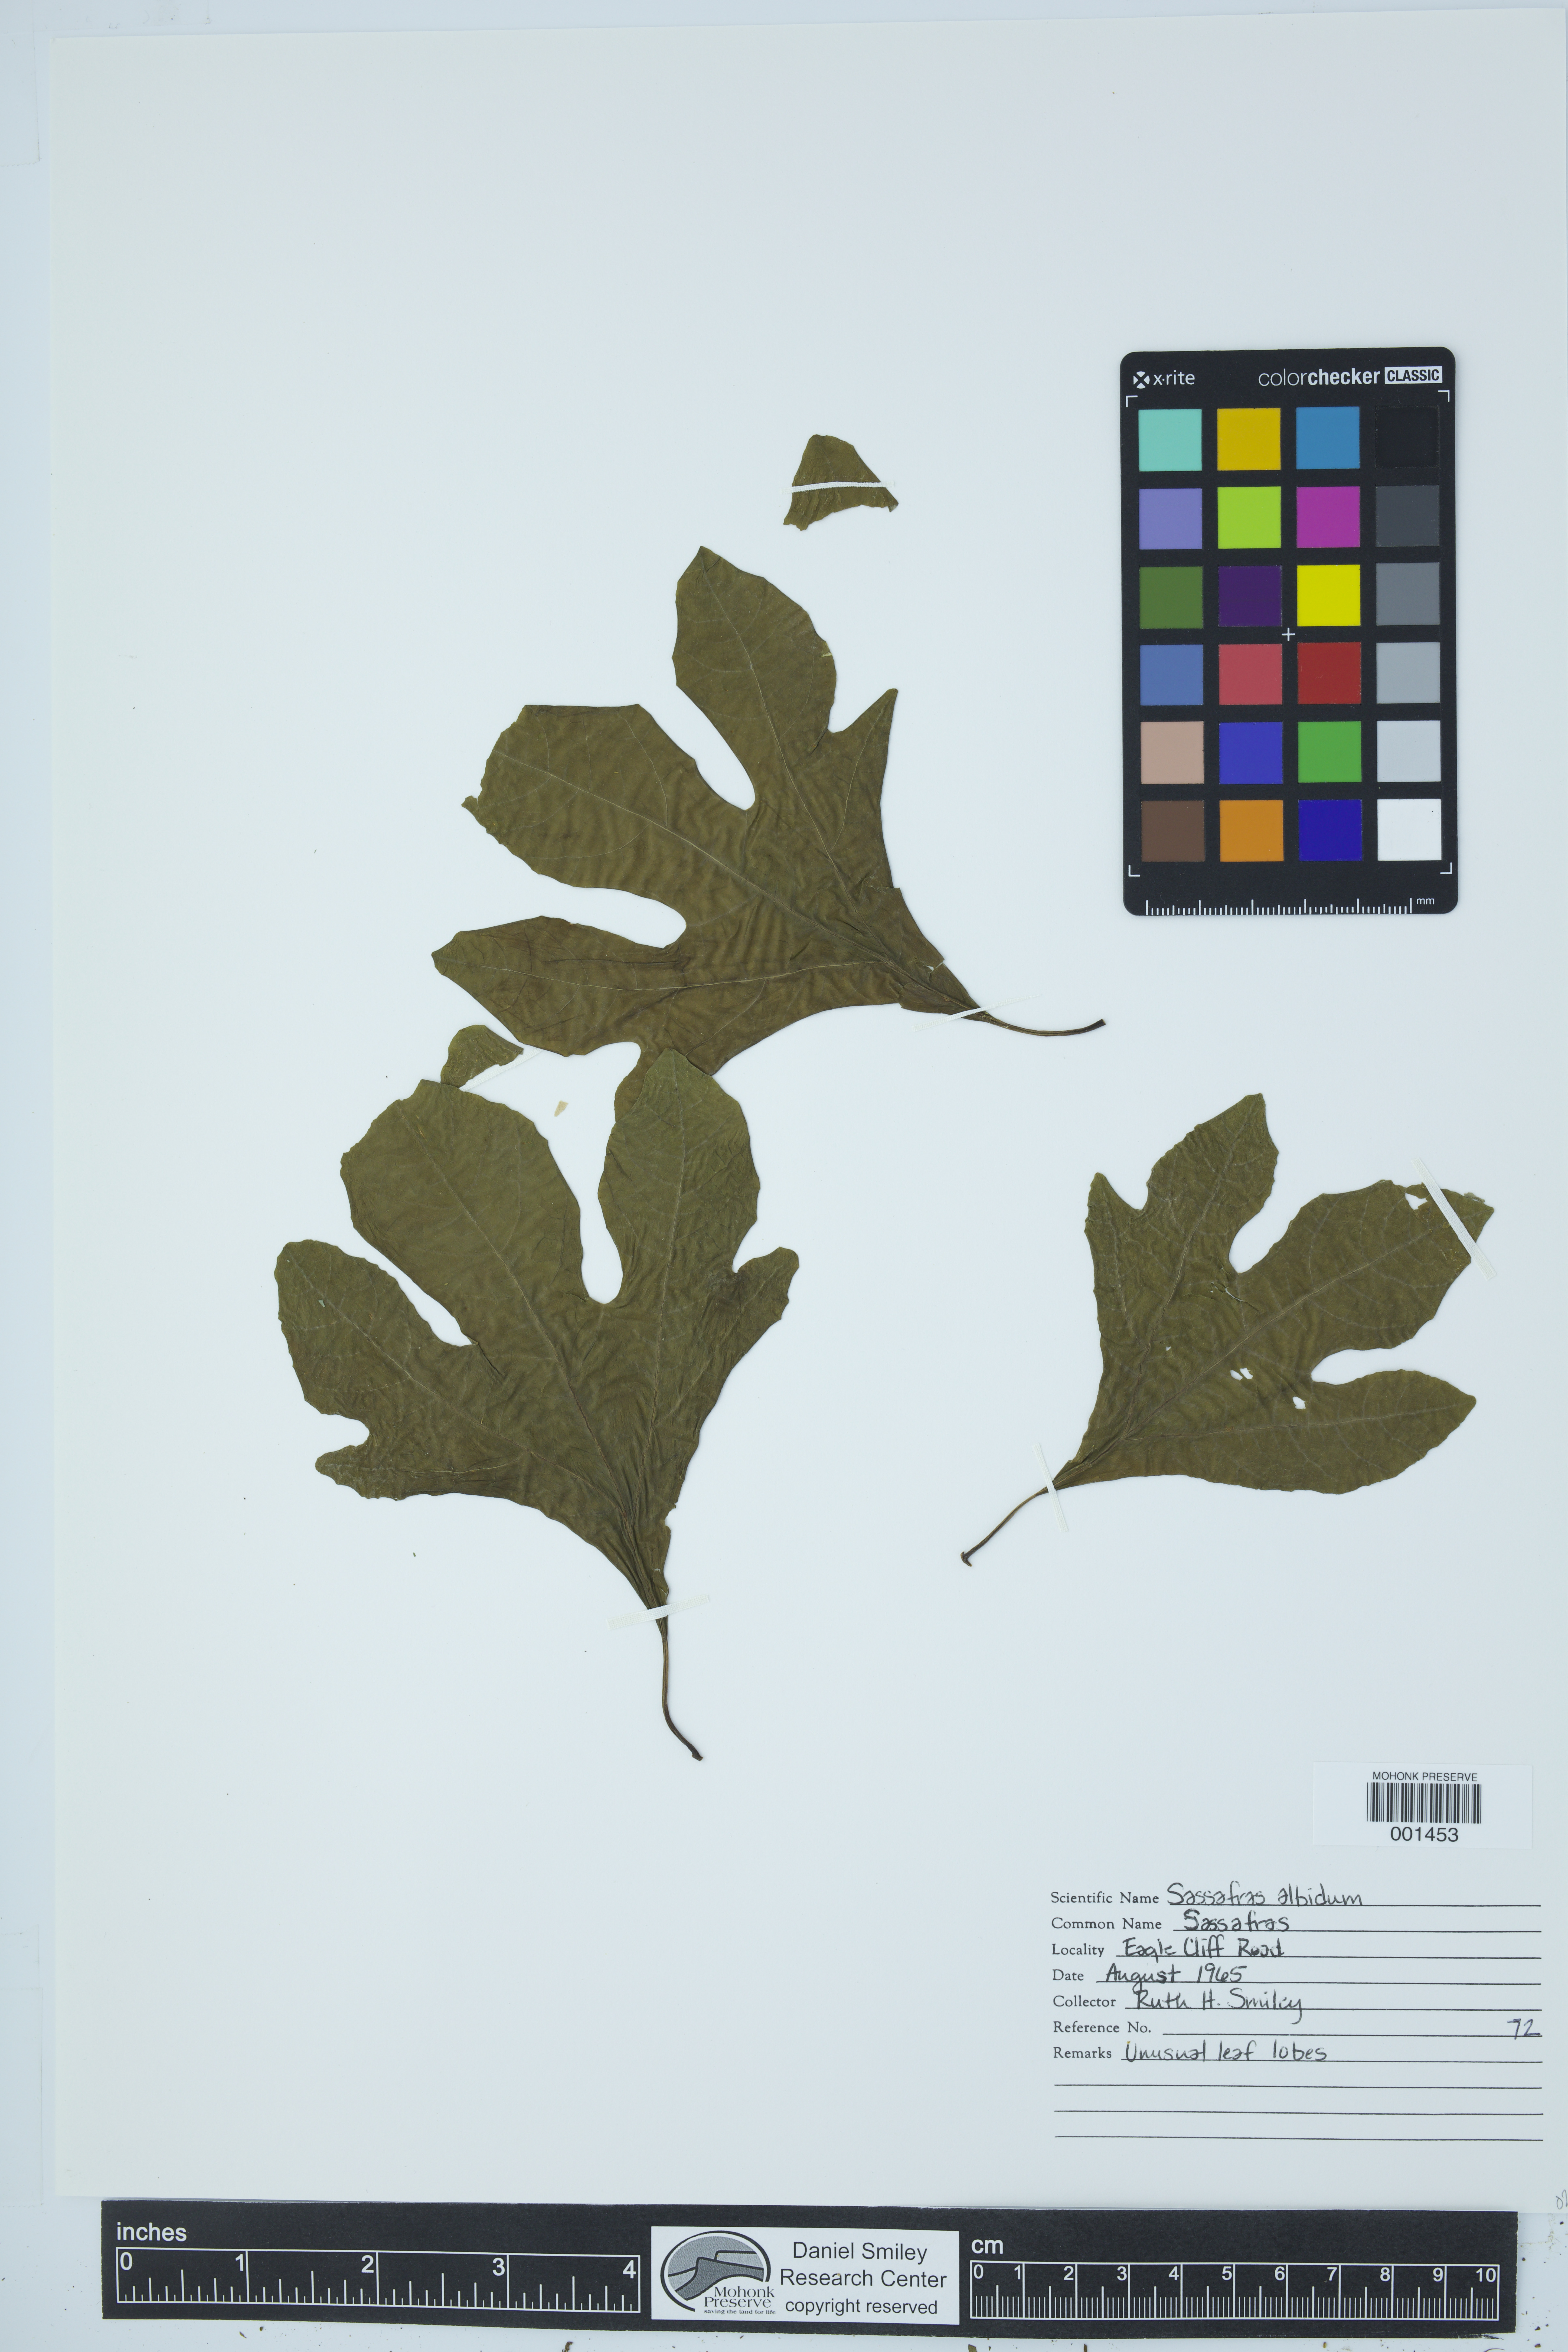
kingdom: Plantae
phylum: Tracheophyta
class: Magnoliopsida
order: Laurales
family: Lauraceae
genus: Sassafras
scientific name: Sassafras albidum
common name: Sassafras
